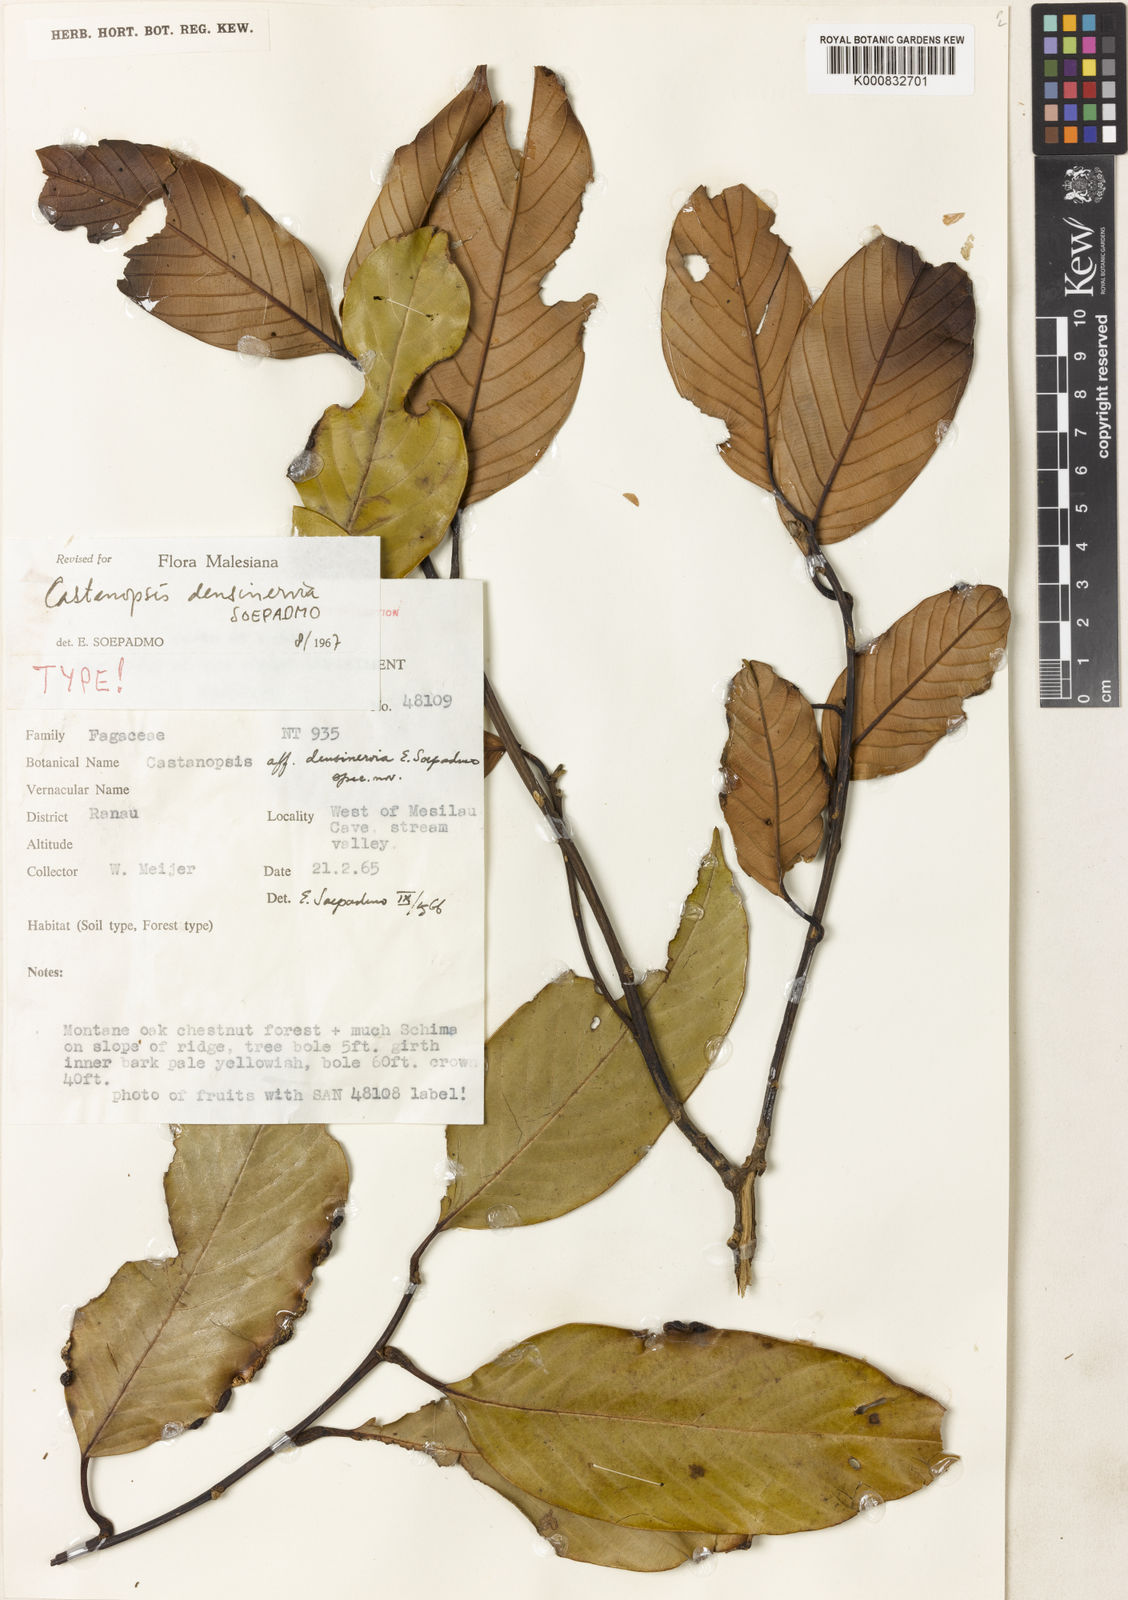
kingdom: Plantae
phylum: Tracheophyta
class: Magnoliopsida
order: Fagales
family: Fagaceae
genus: Castanopsis
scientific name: Castanopsis densinervia
